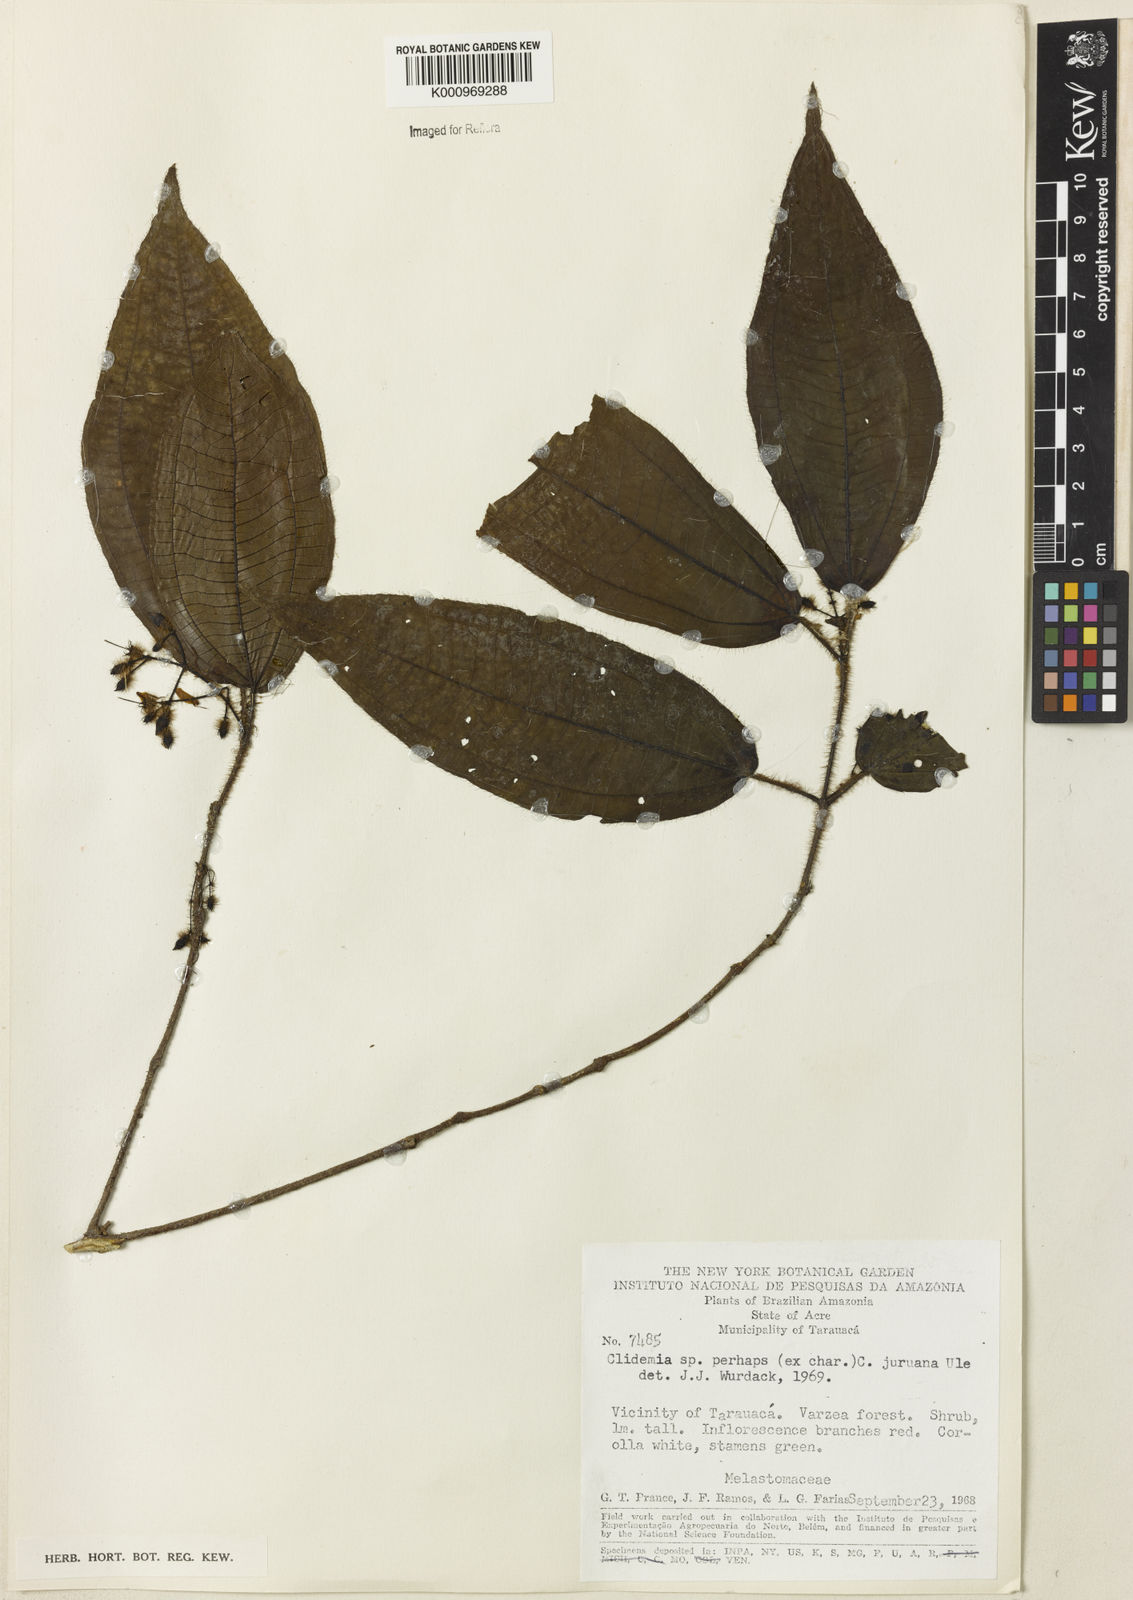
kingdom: Plantae
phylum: Tracheophyta
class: Magnoliopsida
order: Myrtales
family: Melastomataceae
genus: Miconia
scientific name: Miconia
